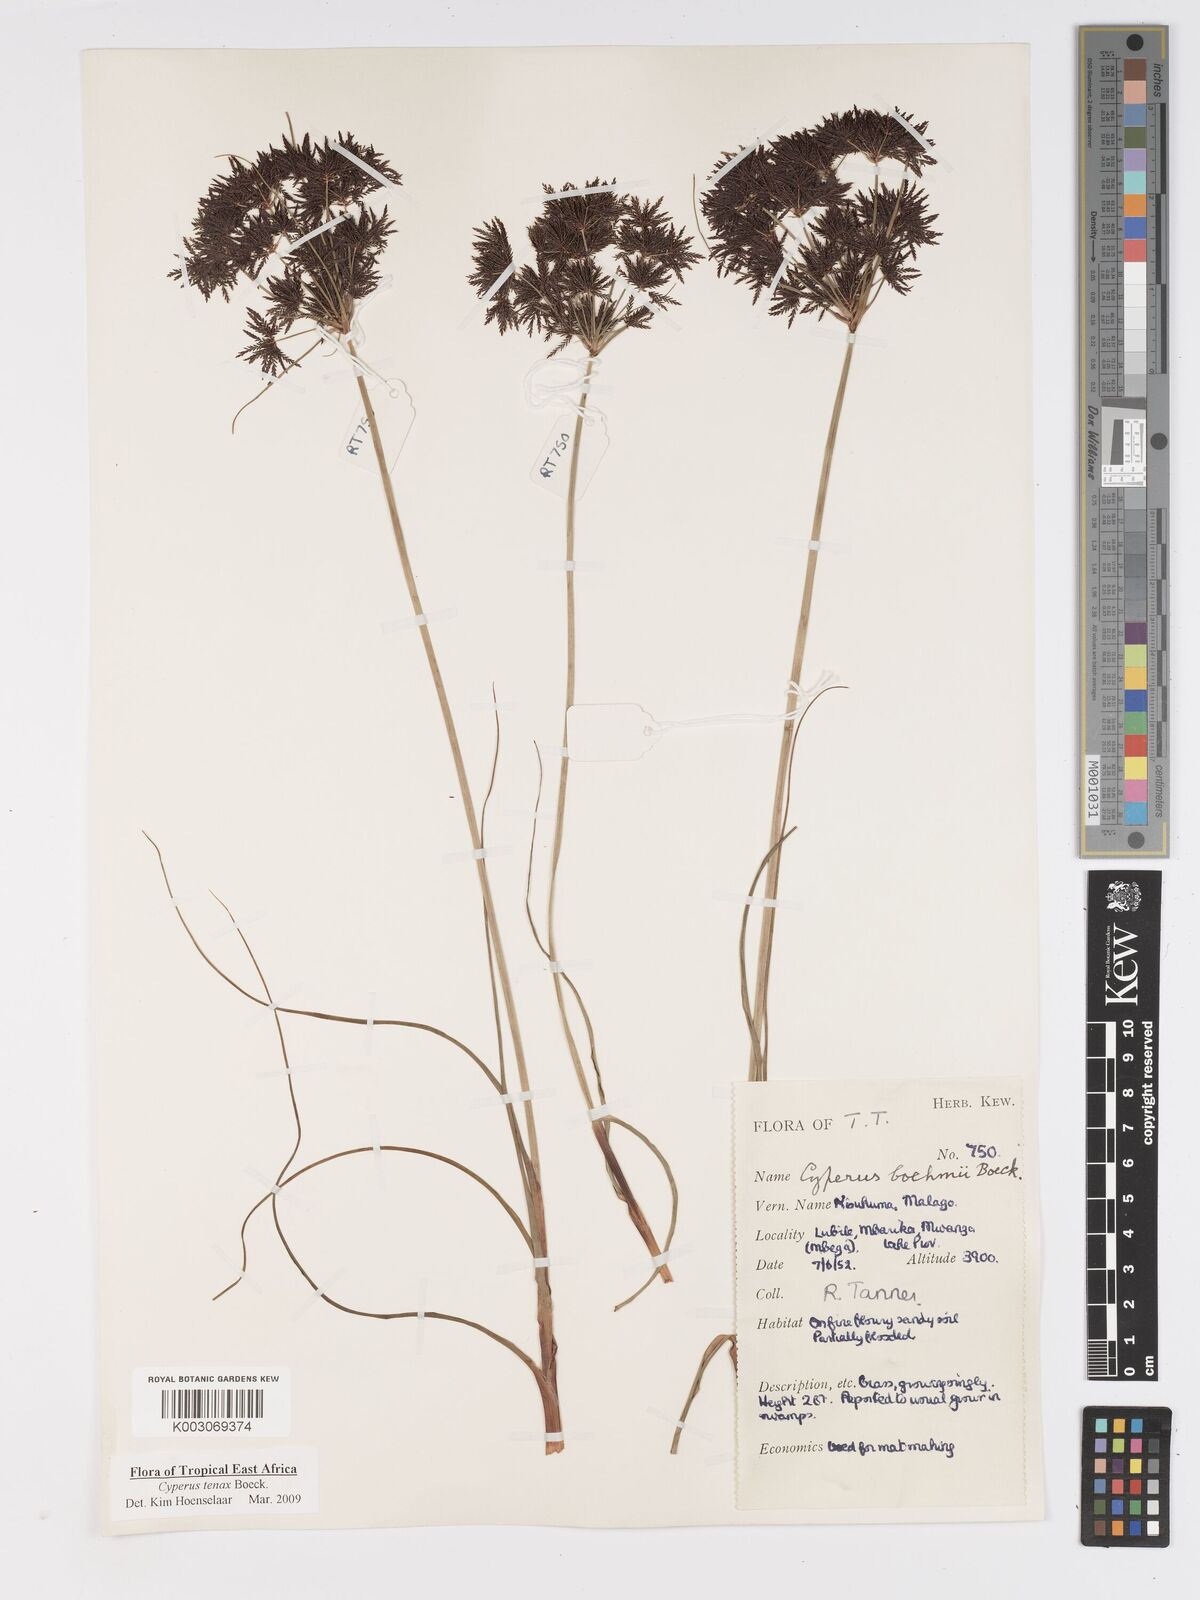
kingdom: Plantae
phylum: Tracheophyta
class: Liliopsida
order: Poales
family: Cyperaceae
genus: Cyperus
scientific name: Cyperus tenax
